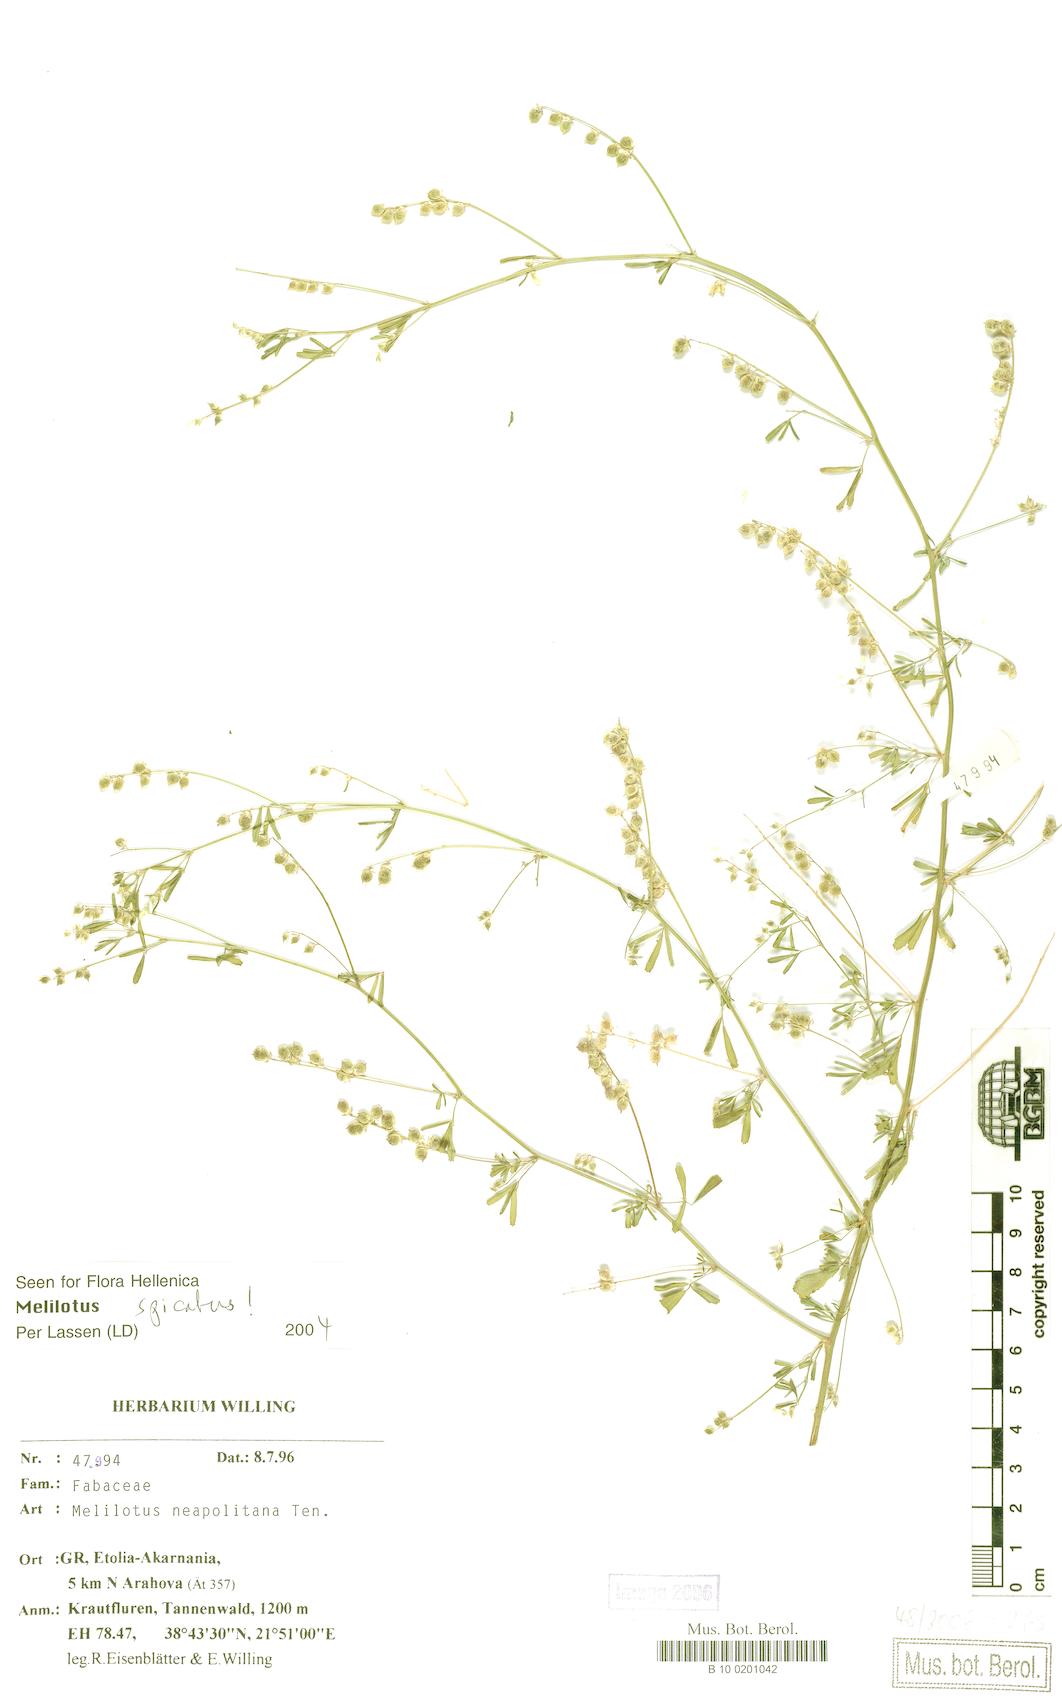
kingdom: Plantae
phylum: Tracheophyta
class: Magnoliopsida
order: Fabales
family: Fabaceae
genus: Melilotus
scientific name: Melilotus neapolitanus
